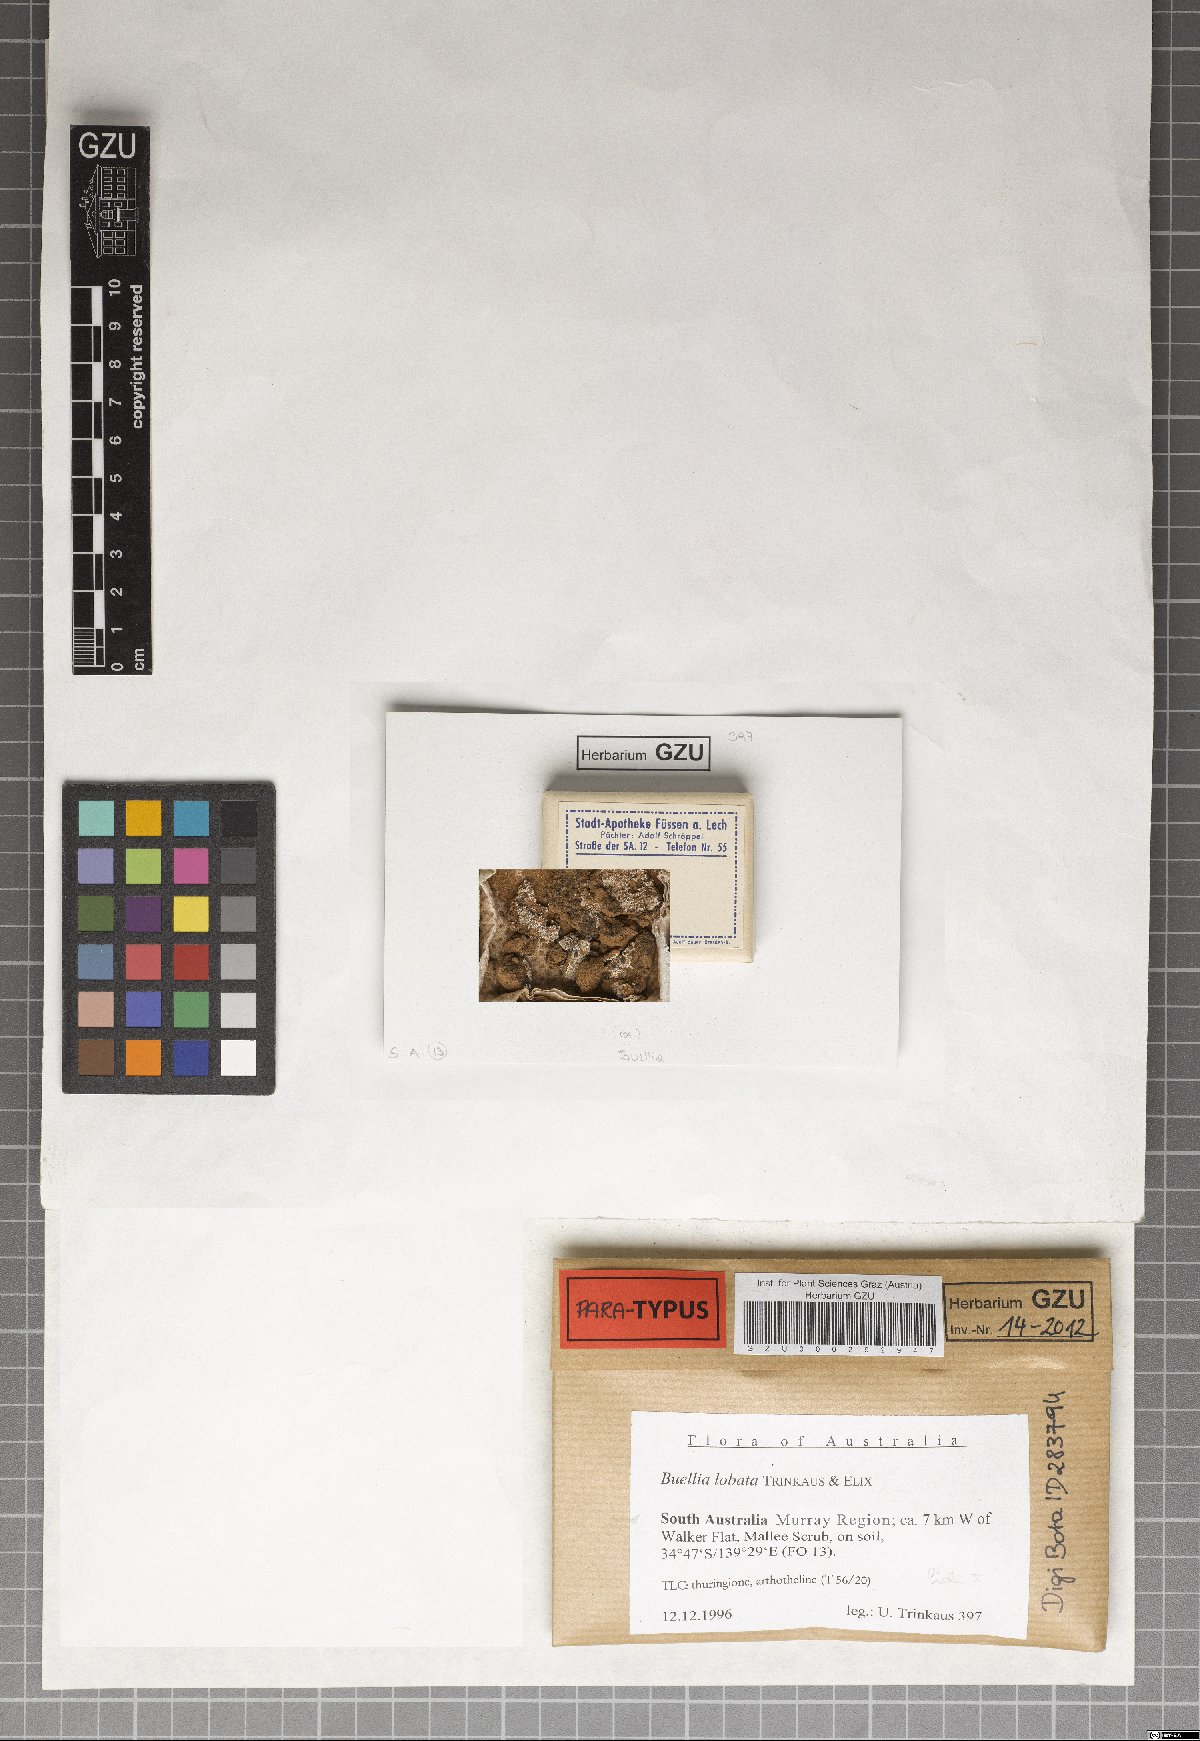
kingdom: Fungi
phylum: Ascomycota
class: Lecanoromycetes
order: Caliciales
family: Caliciaceae
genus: Buellia
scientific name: Buellia lobata
